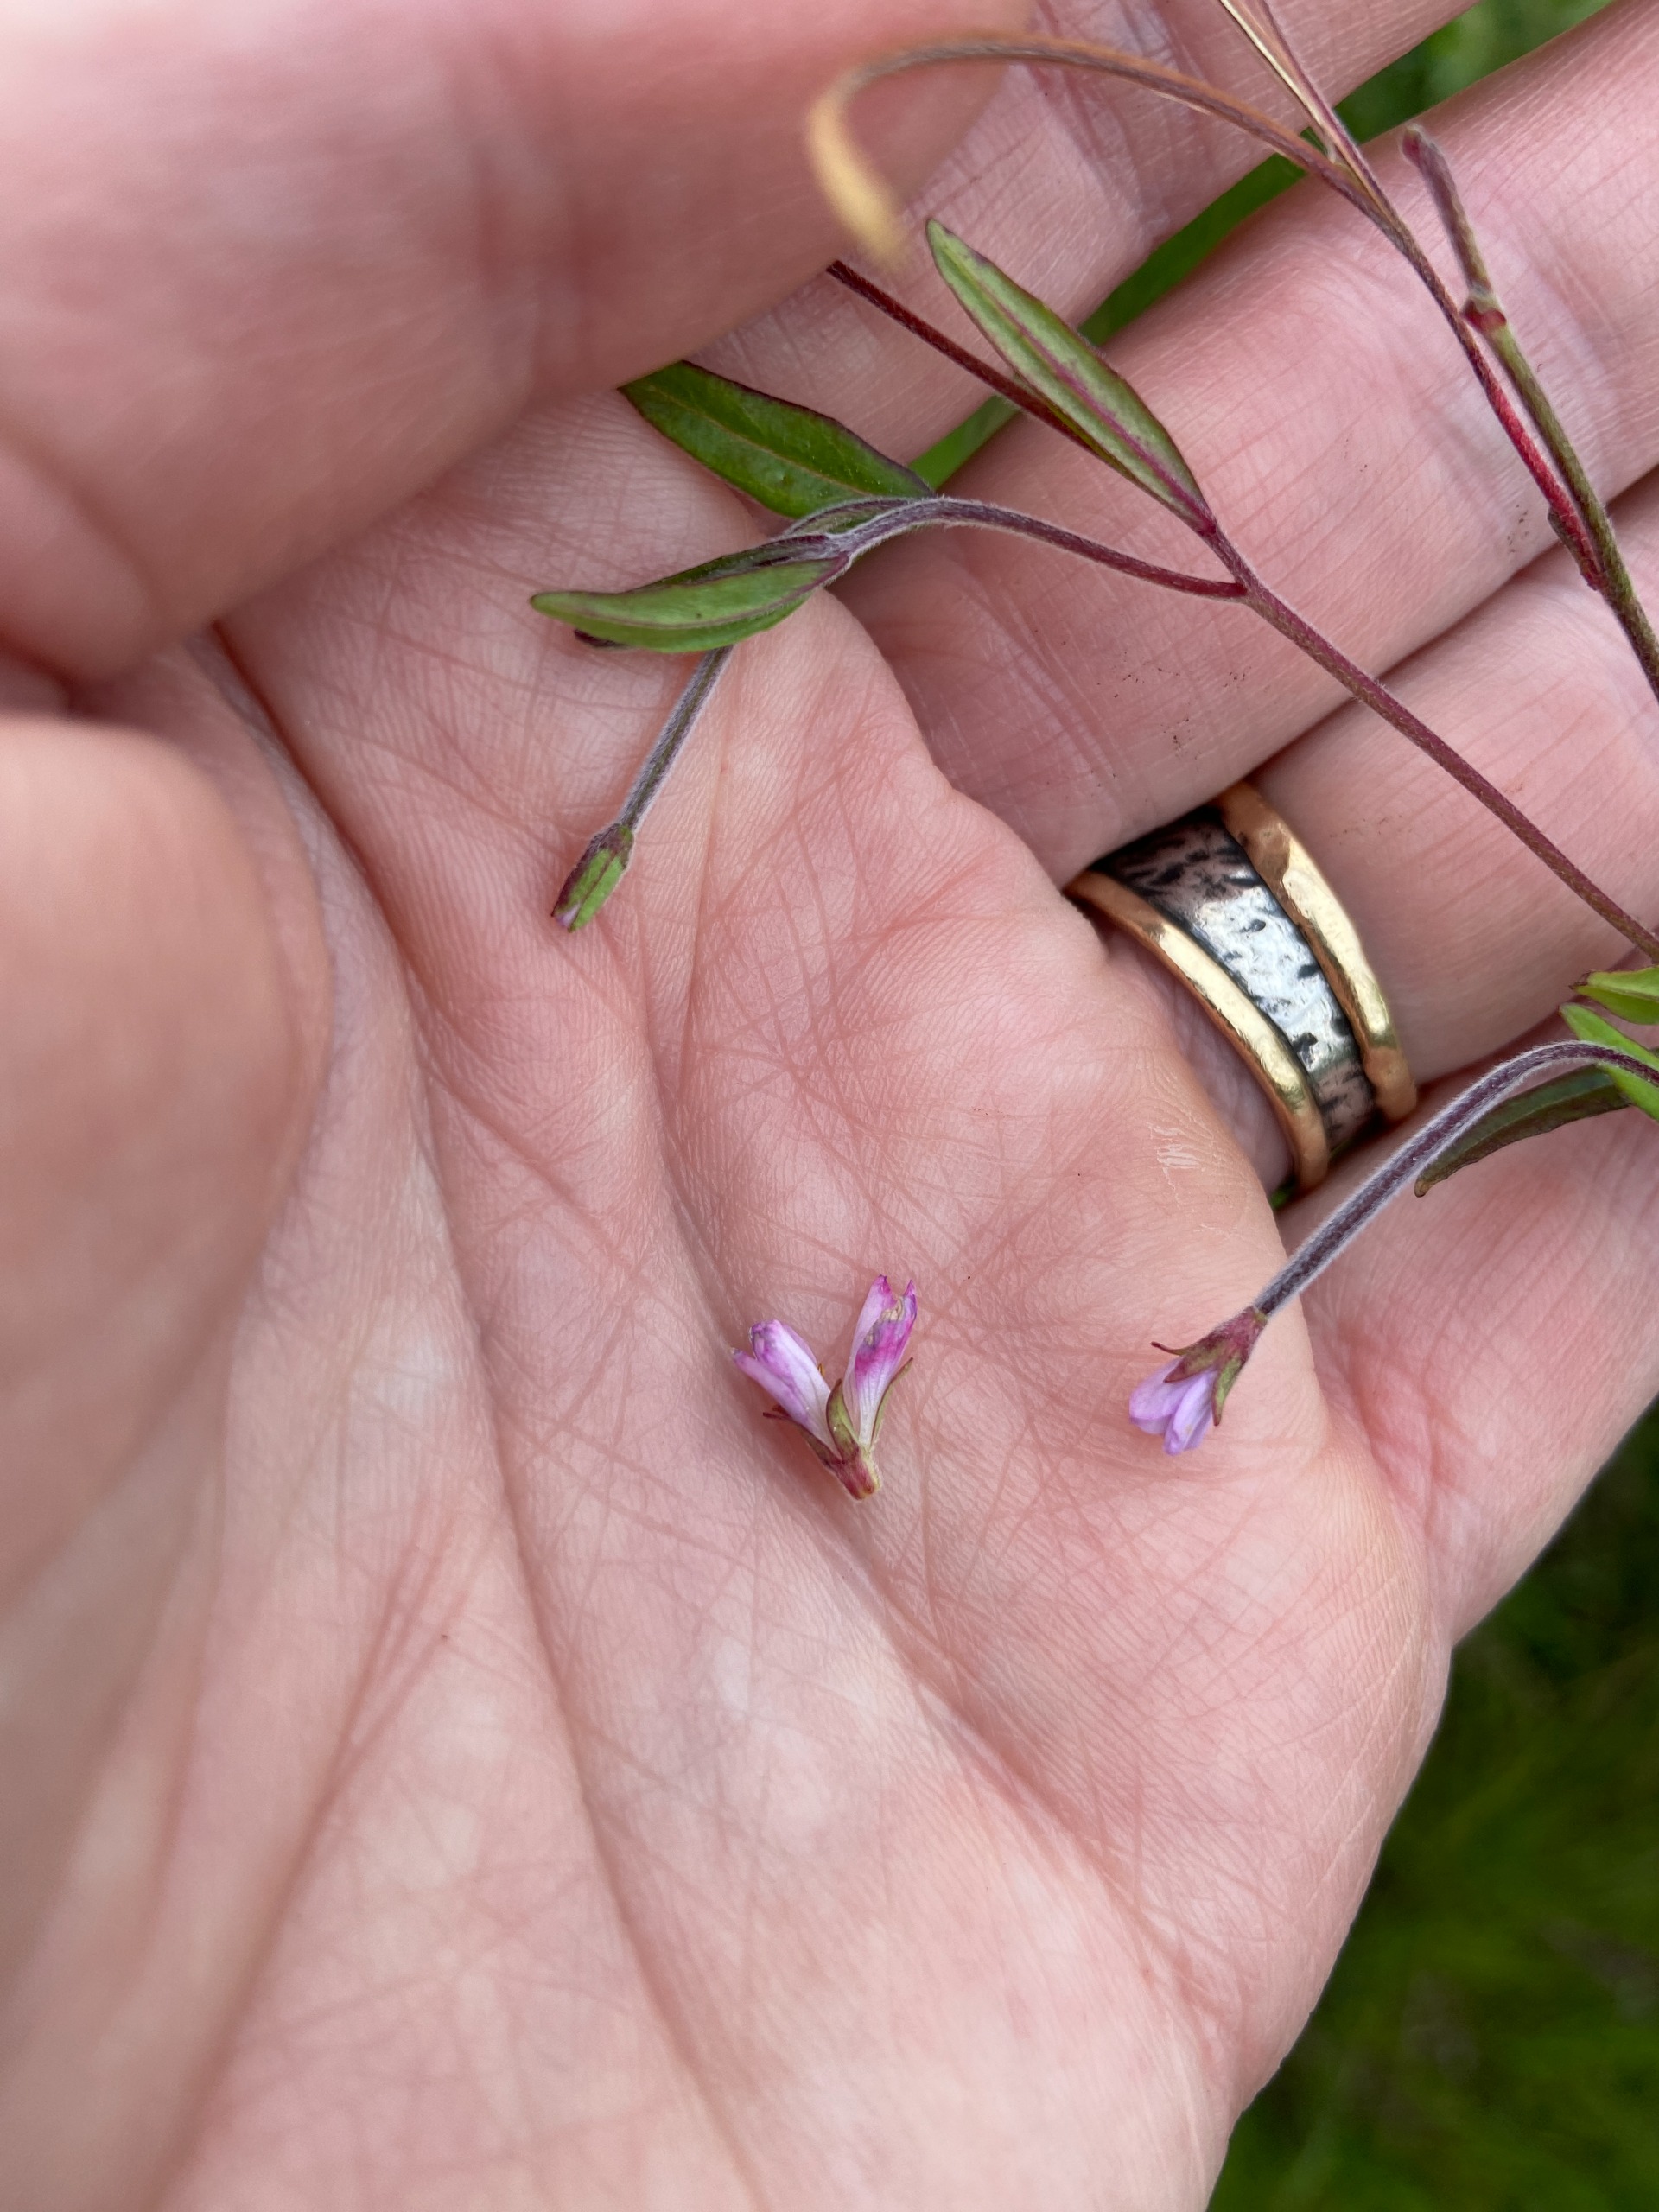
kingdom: Plantae
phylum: Tracheophyta
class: Magnoliopsida
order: Myrtales
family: Onagraceae
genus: Epilobium
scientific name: Epilobium palustre
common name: Kær-dueurt
